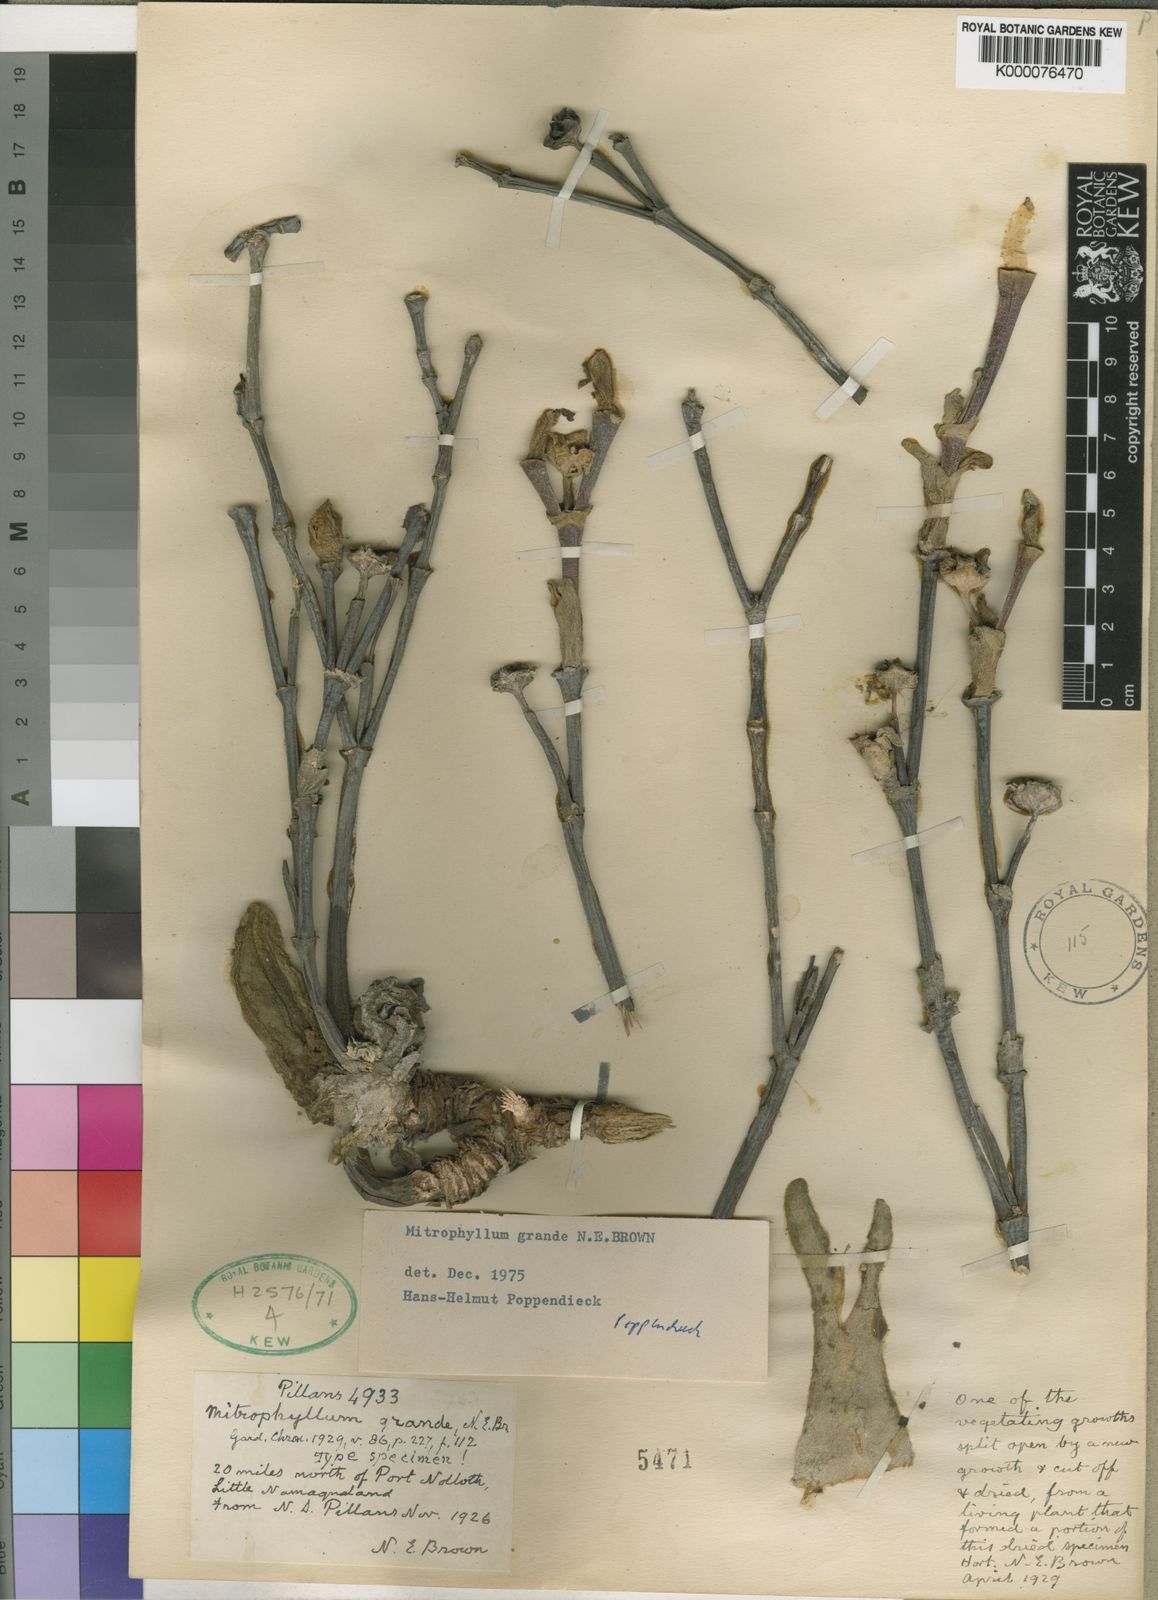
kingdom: Plantae
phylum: Tracheophyta
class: Magnoliopsida
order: Caryophyllales
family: Aizoaceae
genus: Mitrophyllum
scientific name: Mitrophyllum
